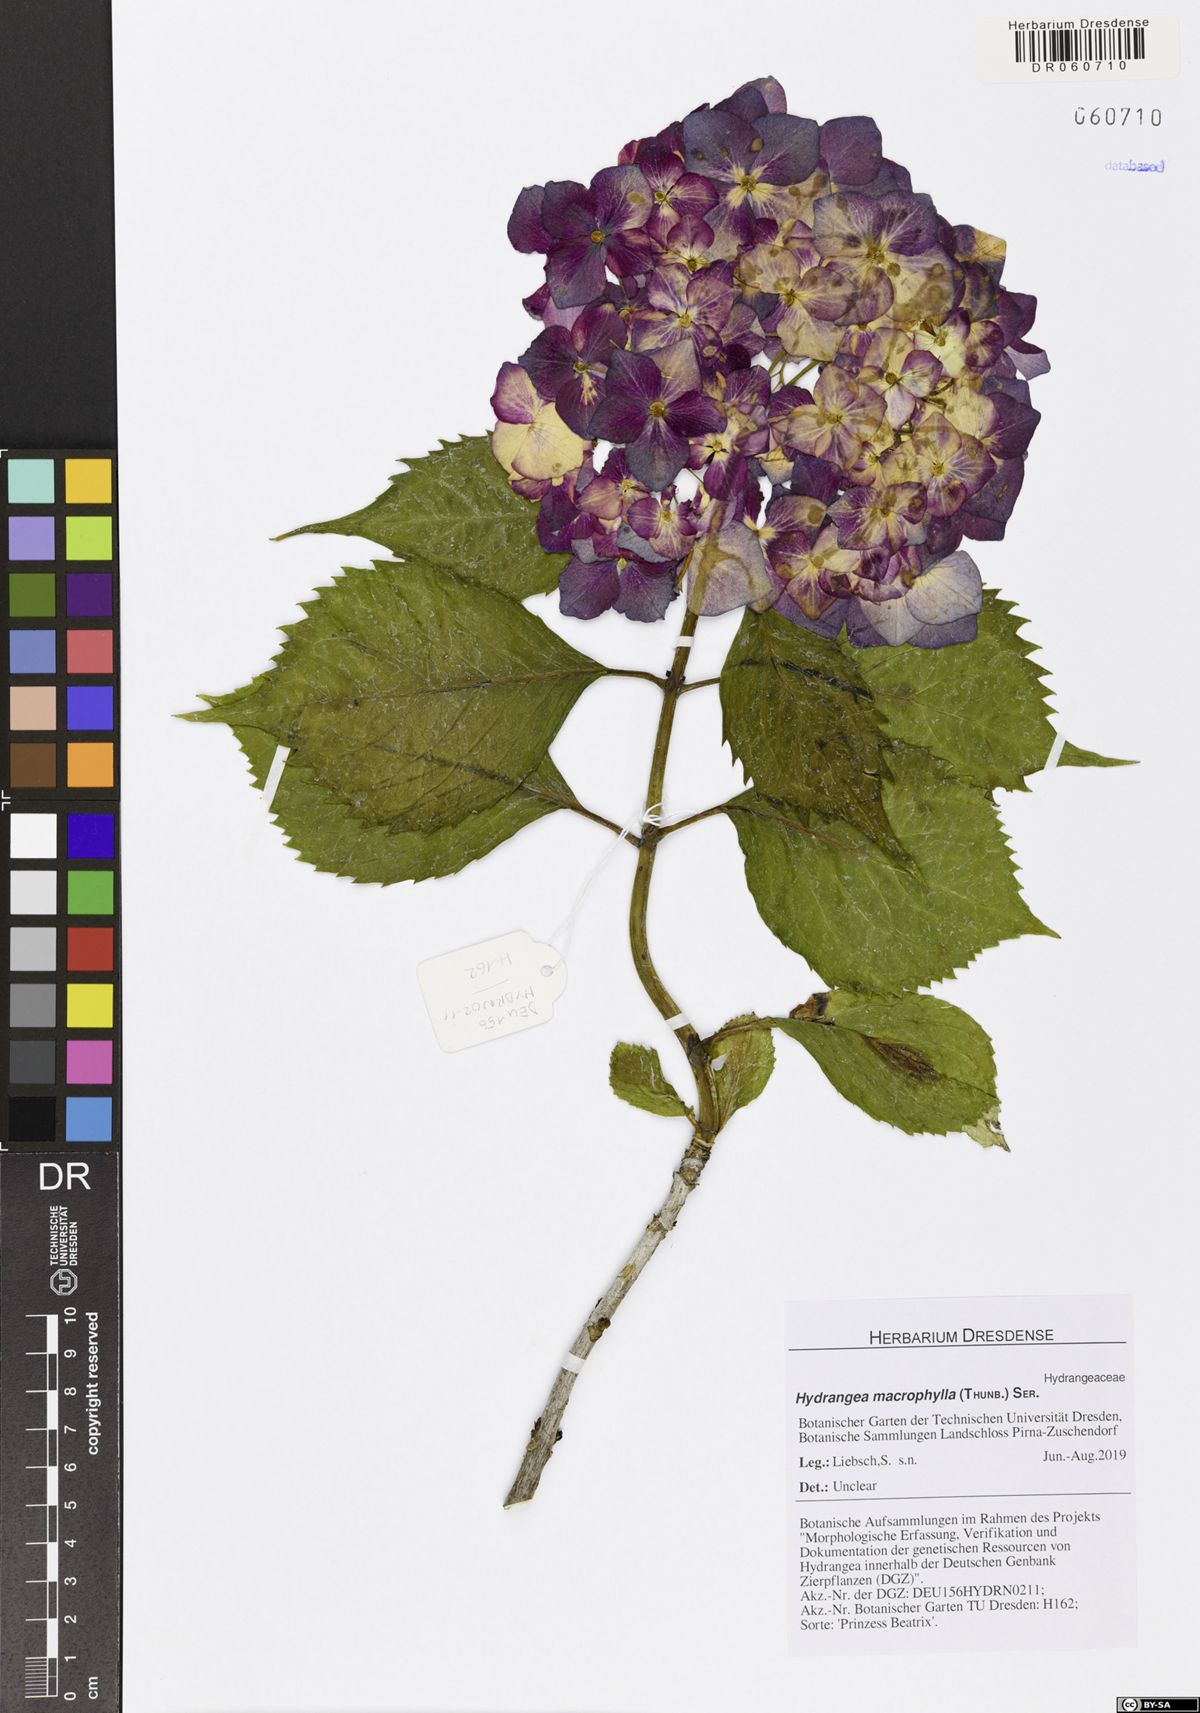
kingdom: Plantae
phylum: Tracheophyta
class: Magnoliopsida
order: Cornales
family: Hydrangeaceae
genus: Hydrangea
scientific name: Hydrangea macrophylla
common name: Hydrangea
